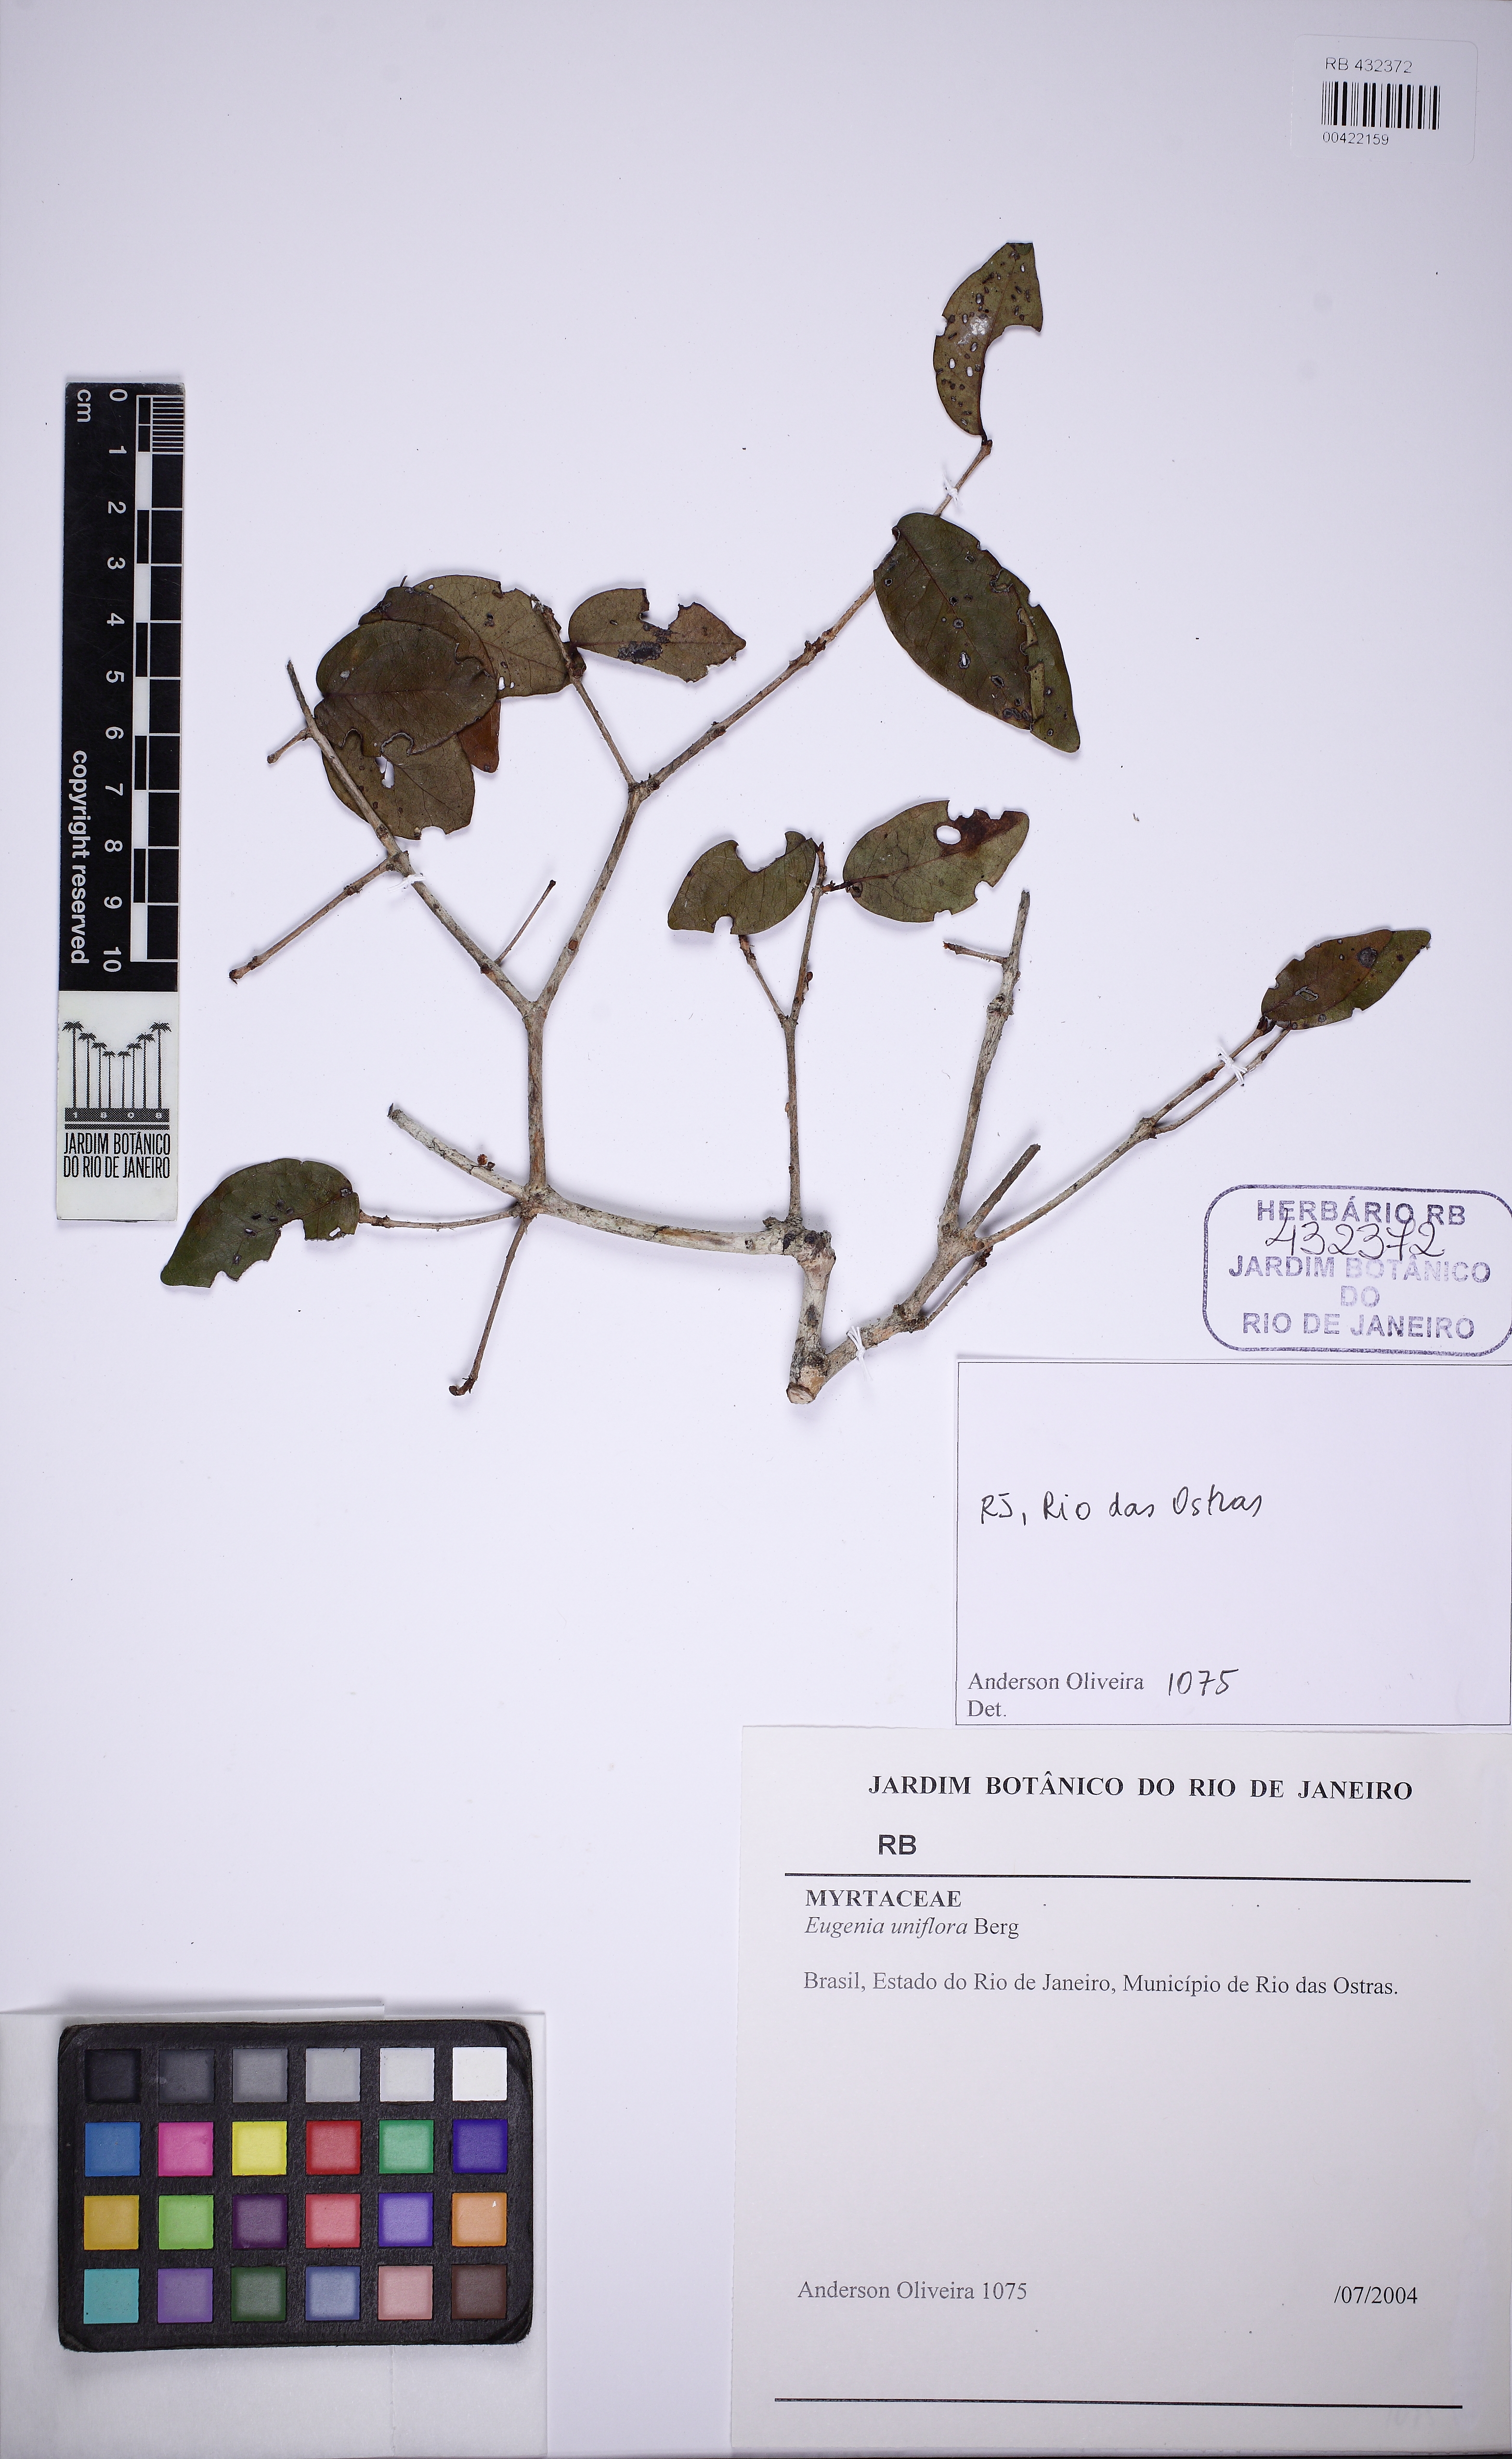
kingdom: Plantae
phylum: Tracheophyta
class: Magnoliopsida
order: Myrtales
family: Myrtaceae
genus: Eugenia
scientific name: Eugenia uniflora
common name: Surinam cherry
